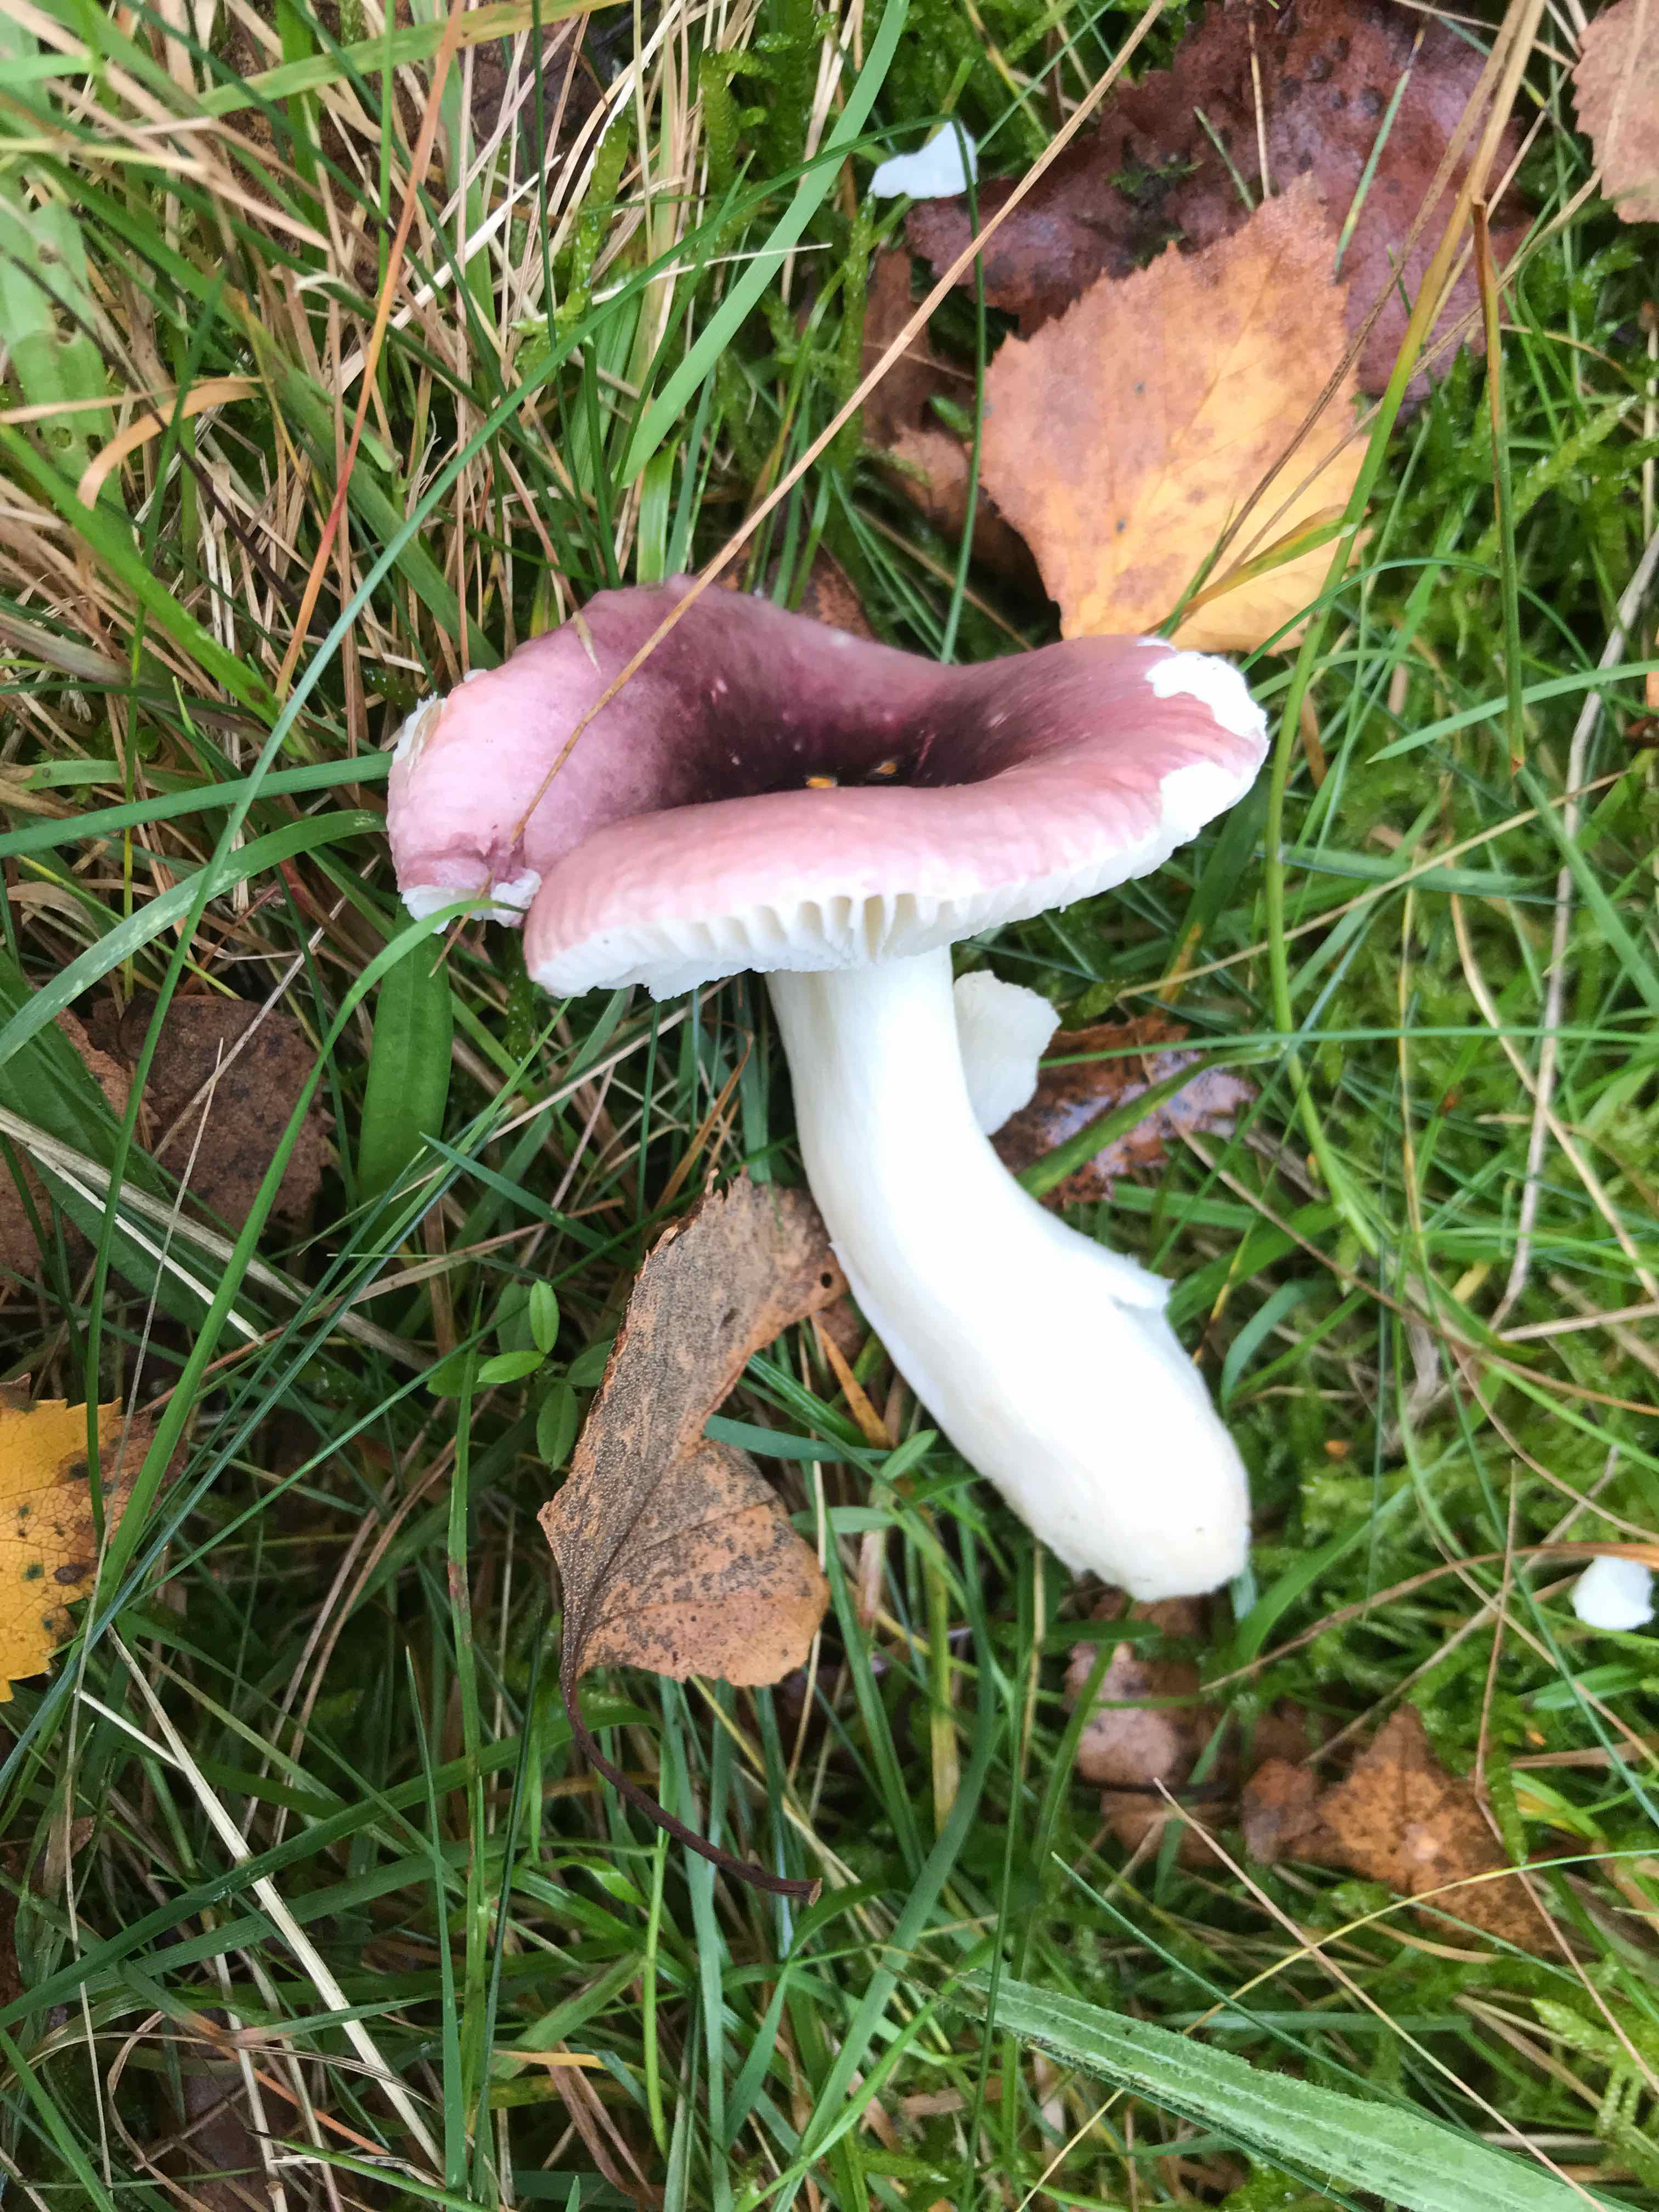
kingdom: Fungi
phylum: Basidiomycota
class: Agaricomycetes
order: Russulales
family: Russulaceae
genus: Russula
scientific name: Russula fragilis
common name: savbladet skørhat
